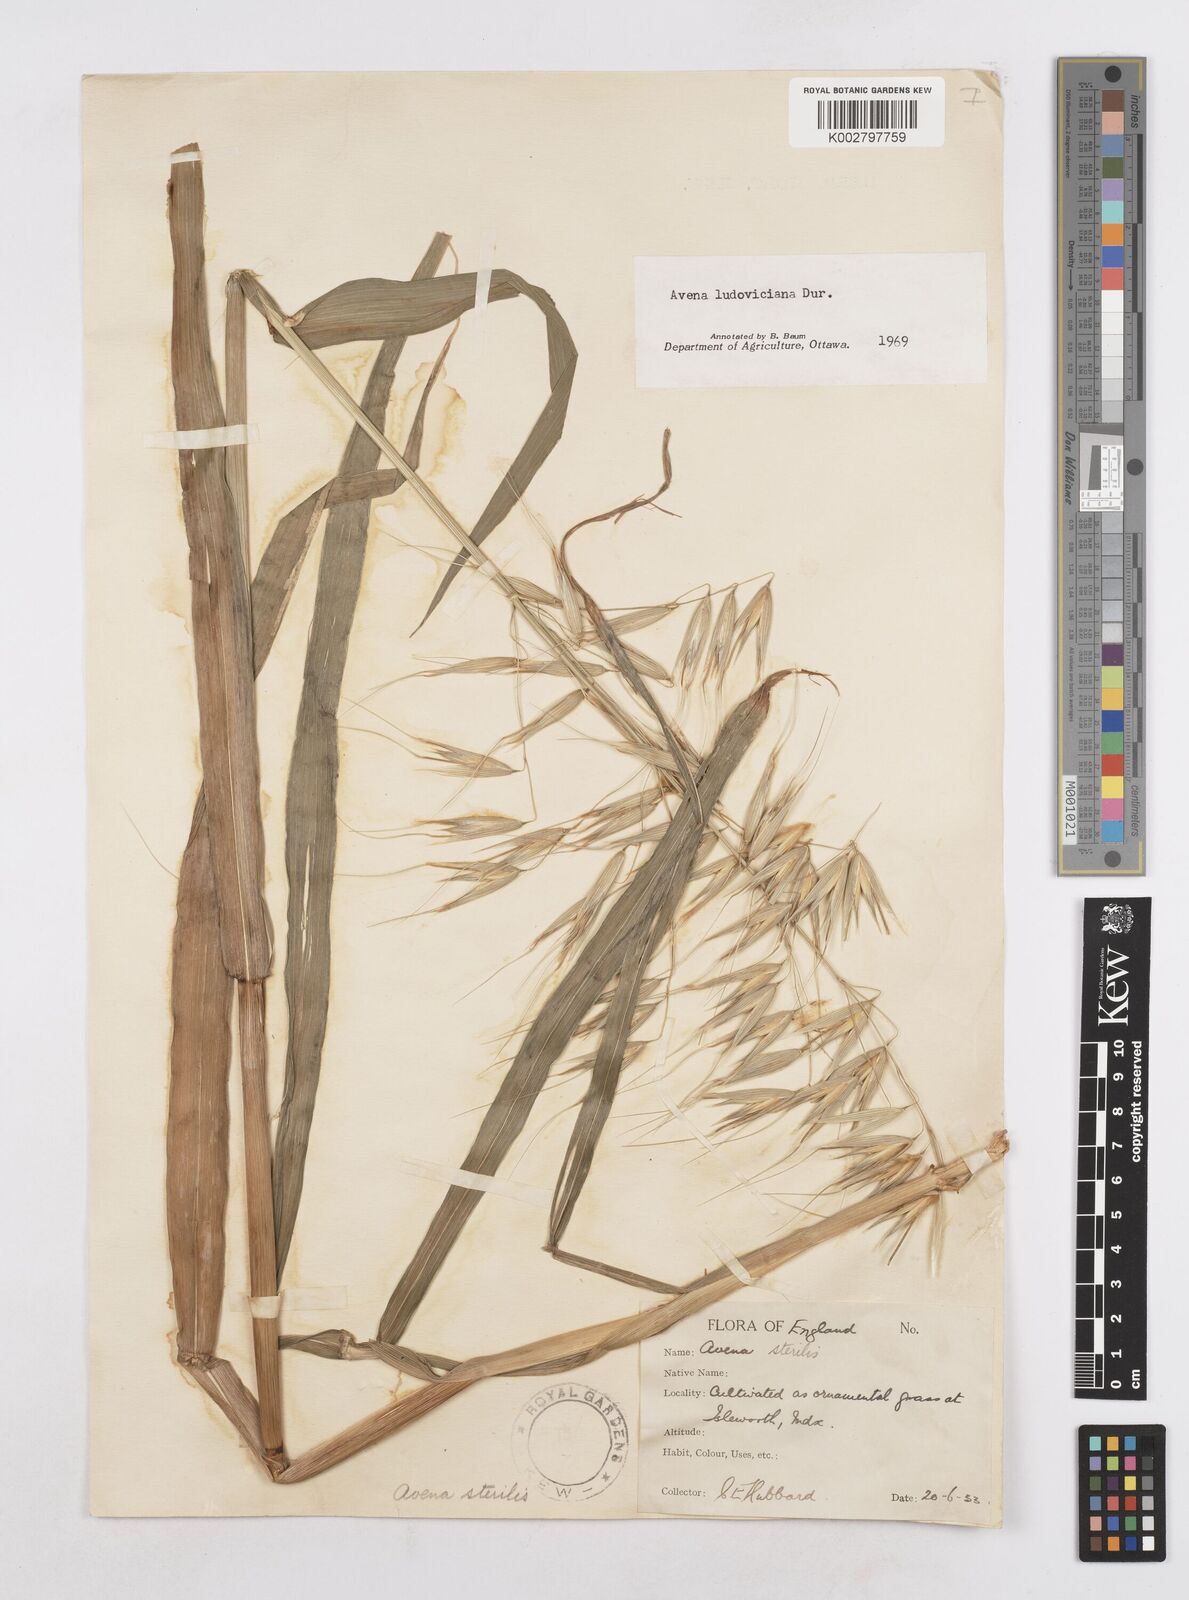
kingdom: Plantae
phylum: Tracheophyta
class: Liliopsida
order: Poales
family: Poaceae
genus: Avena
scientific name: Avena sterilis
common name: Animated oat
